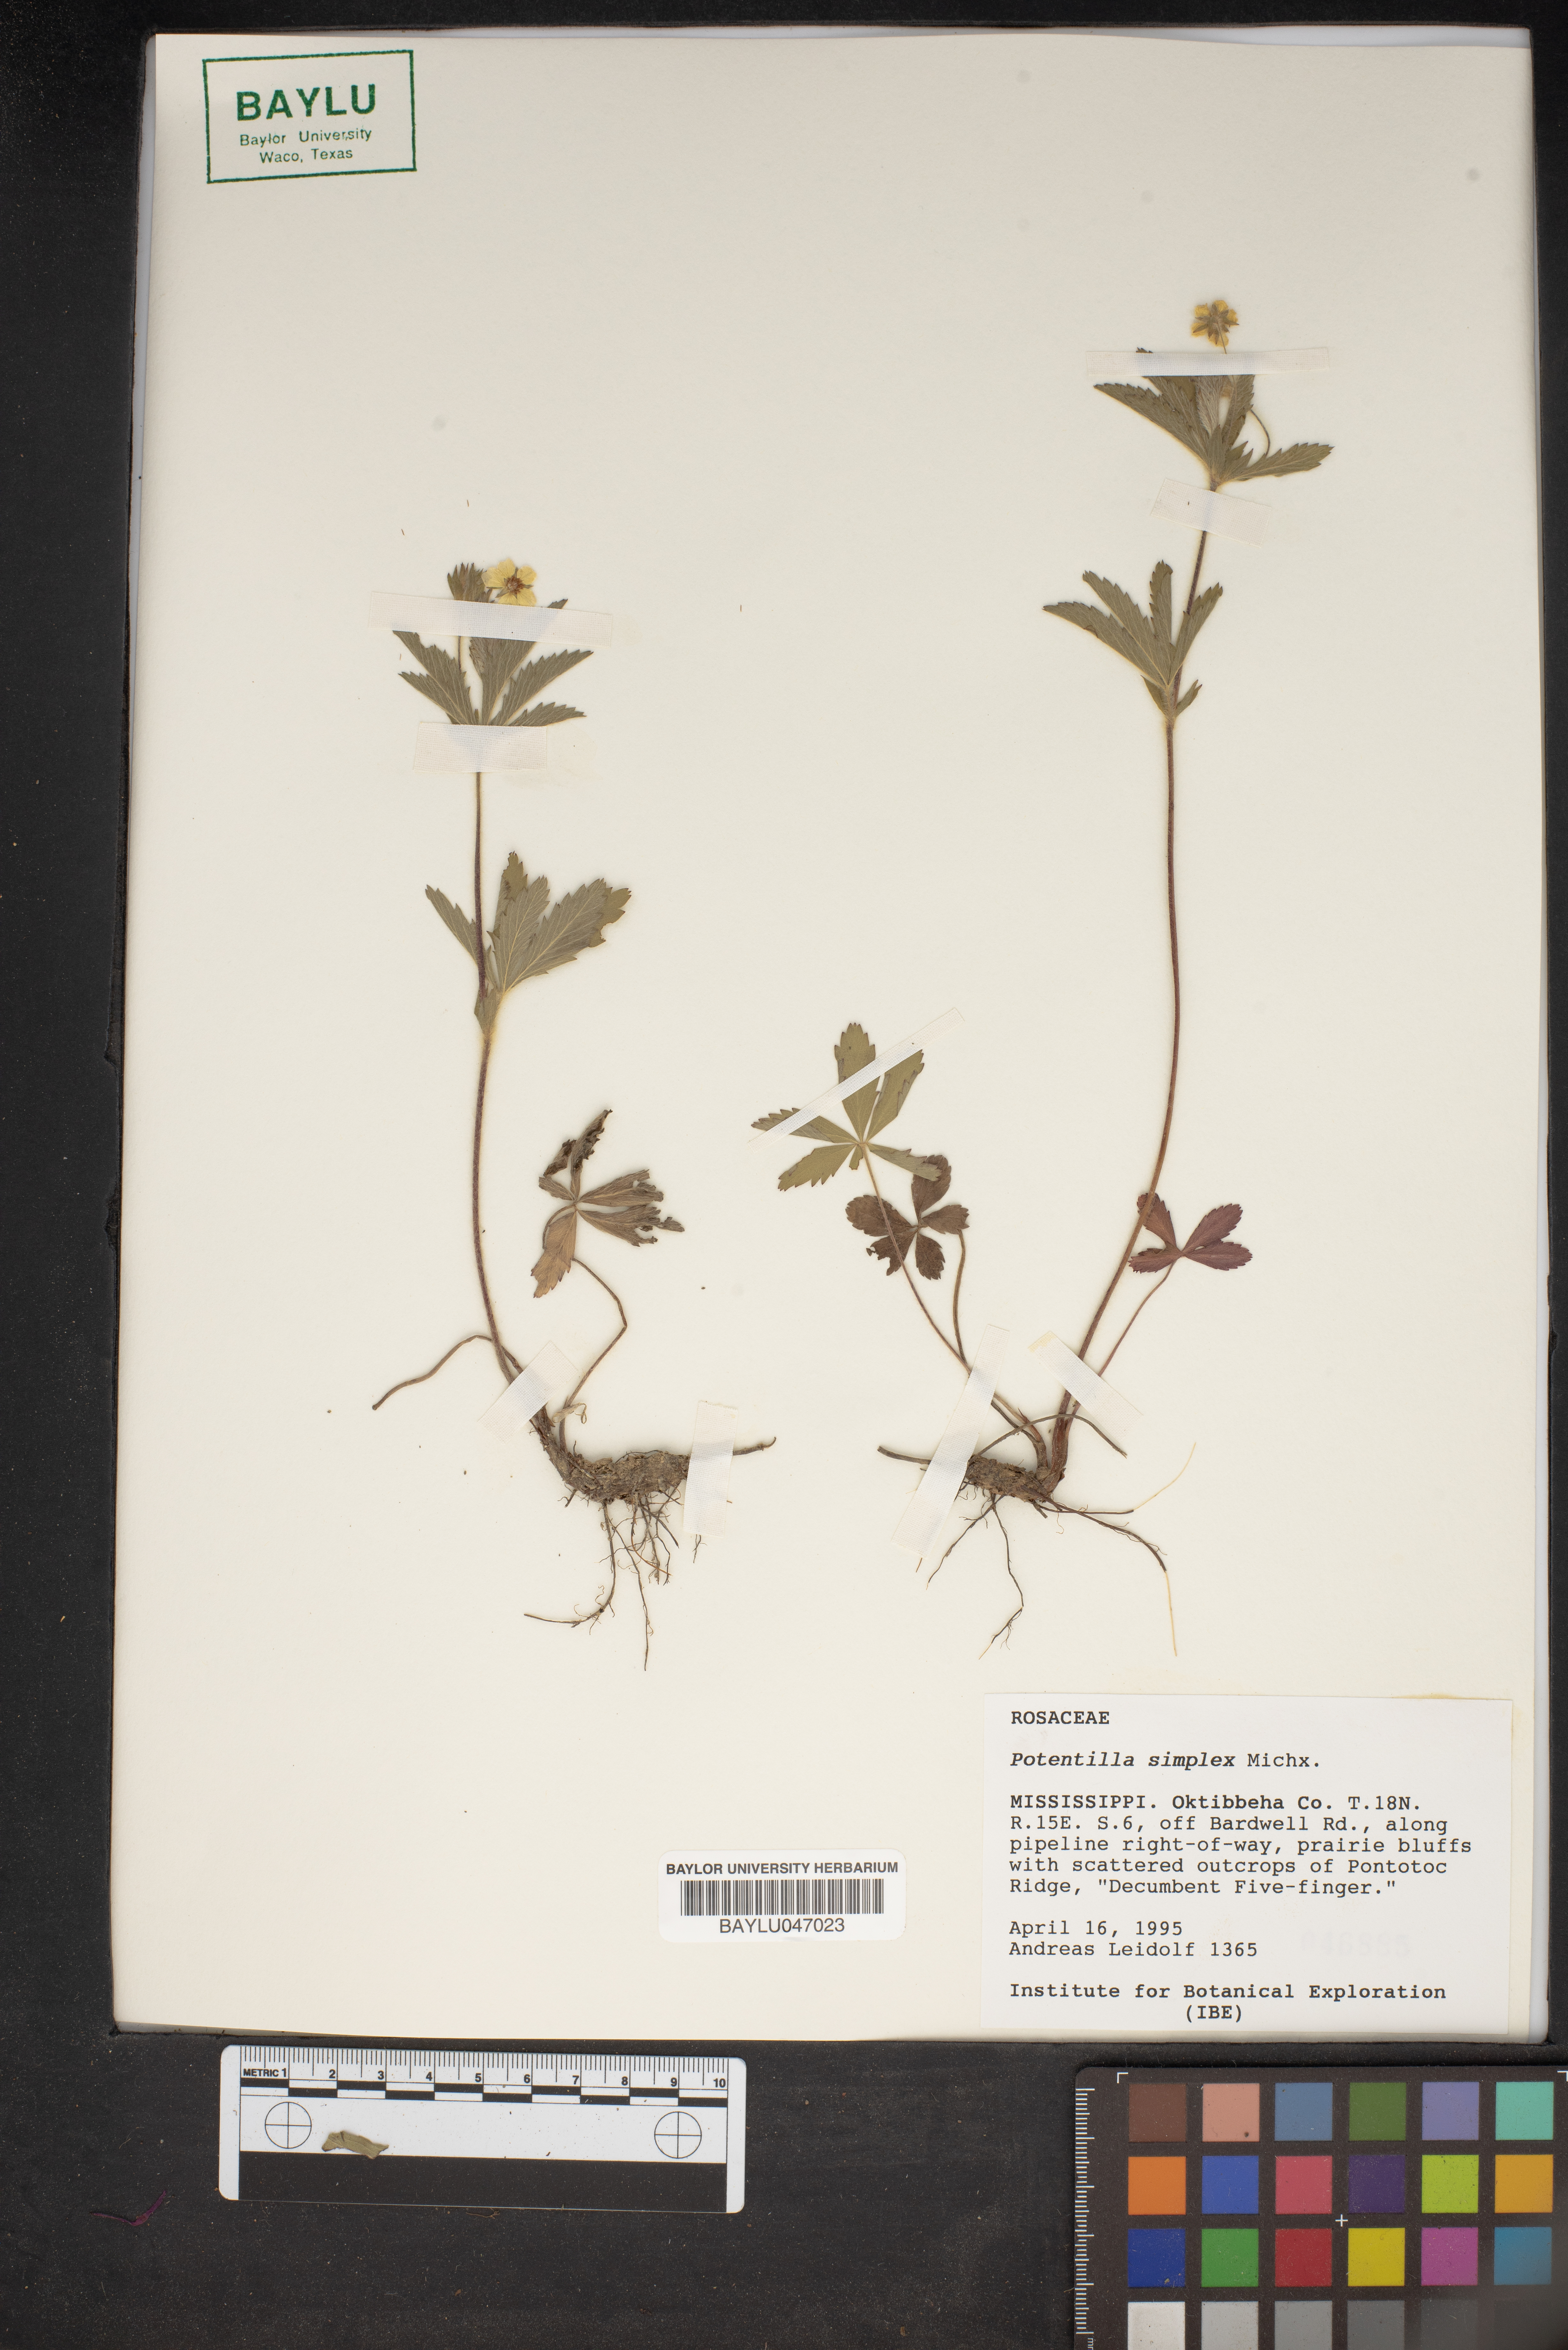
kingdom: Plantae
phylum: Tracheophyta
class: Magnoliopsida
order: Rosales
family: Rosaceae
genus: Potentilla
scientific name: Potentilla simplex
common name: Old field cinquefoil
